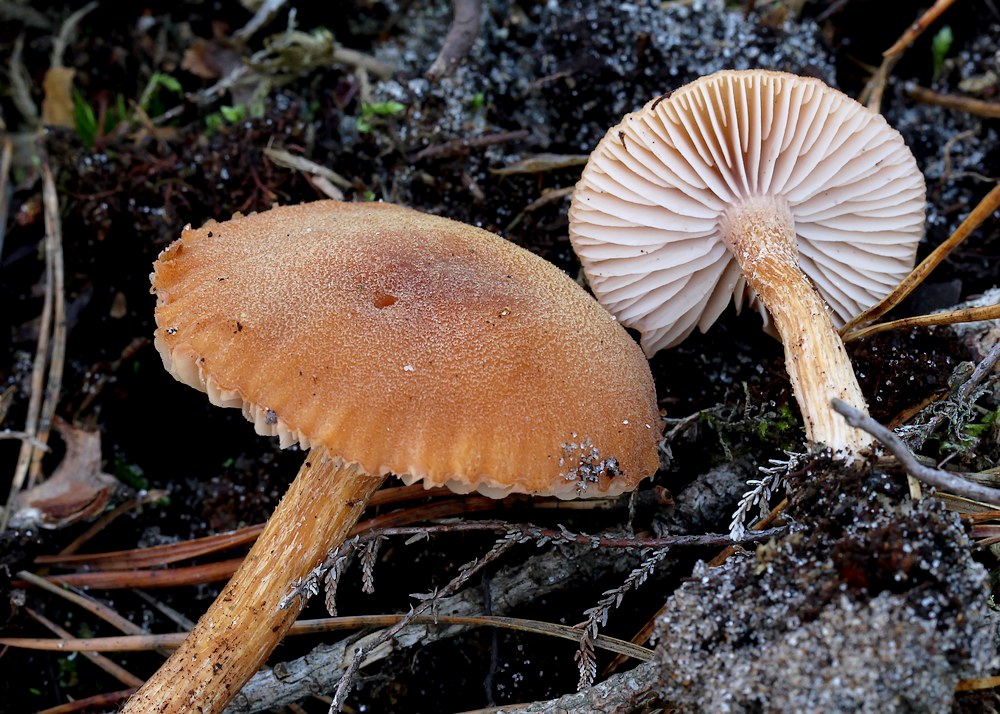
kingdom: Fungi
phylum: Basidiomycota
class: Agaricomycetes
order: Agaricales
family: Hydnangiaceae
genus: Laccaria
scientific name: Laccaria bicolor
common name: tvefarvet ametysthat
